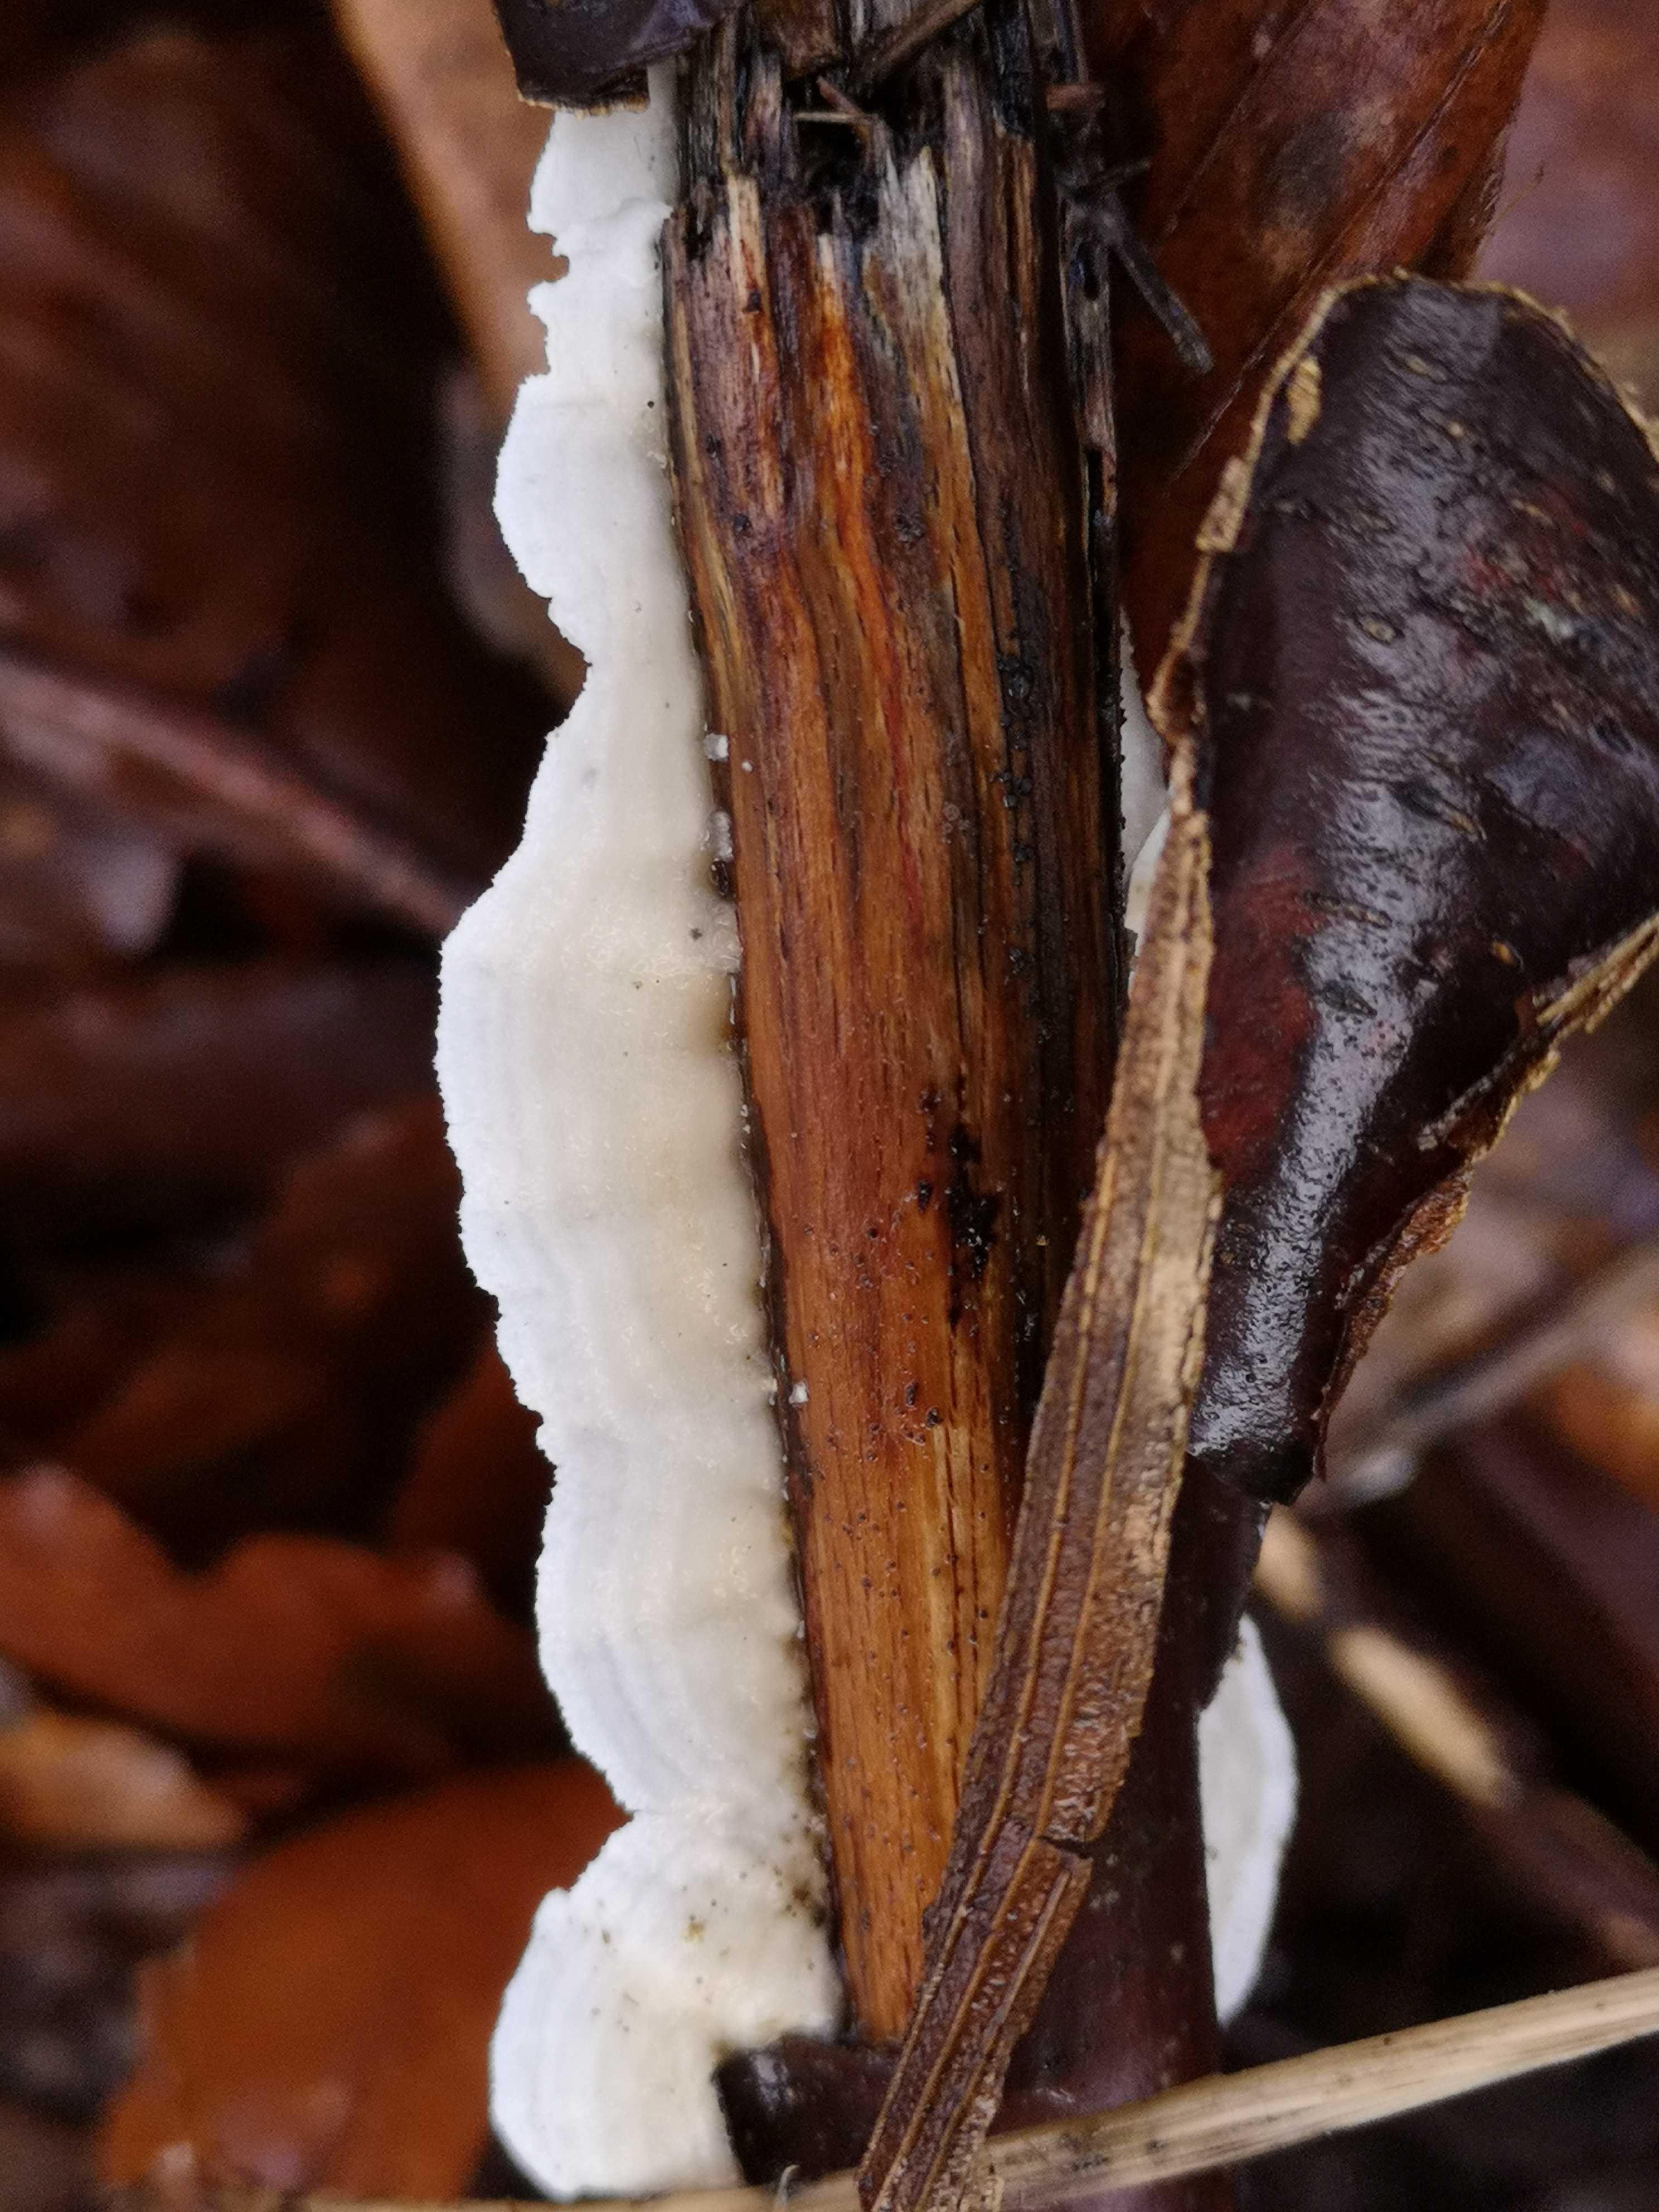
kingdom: Fungi
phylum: Basidiomycota
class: Agaricomycetes
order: Polyporales
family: Irpicaceae
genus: Byssomerulius
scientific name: Byssomerulius corium
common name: læder-åresvamp
